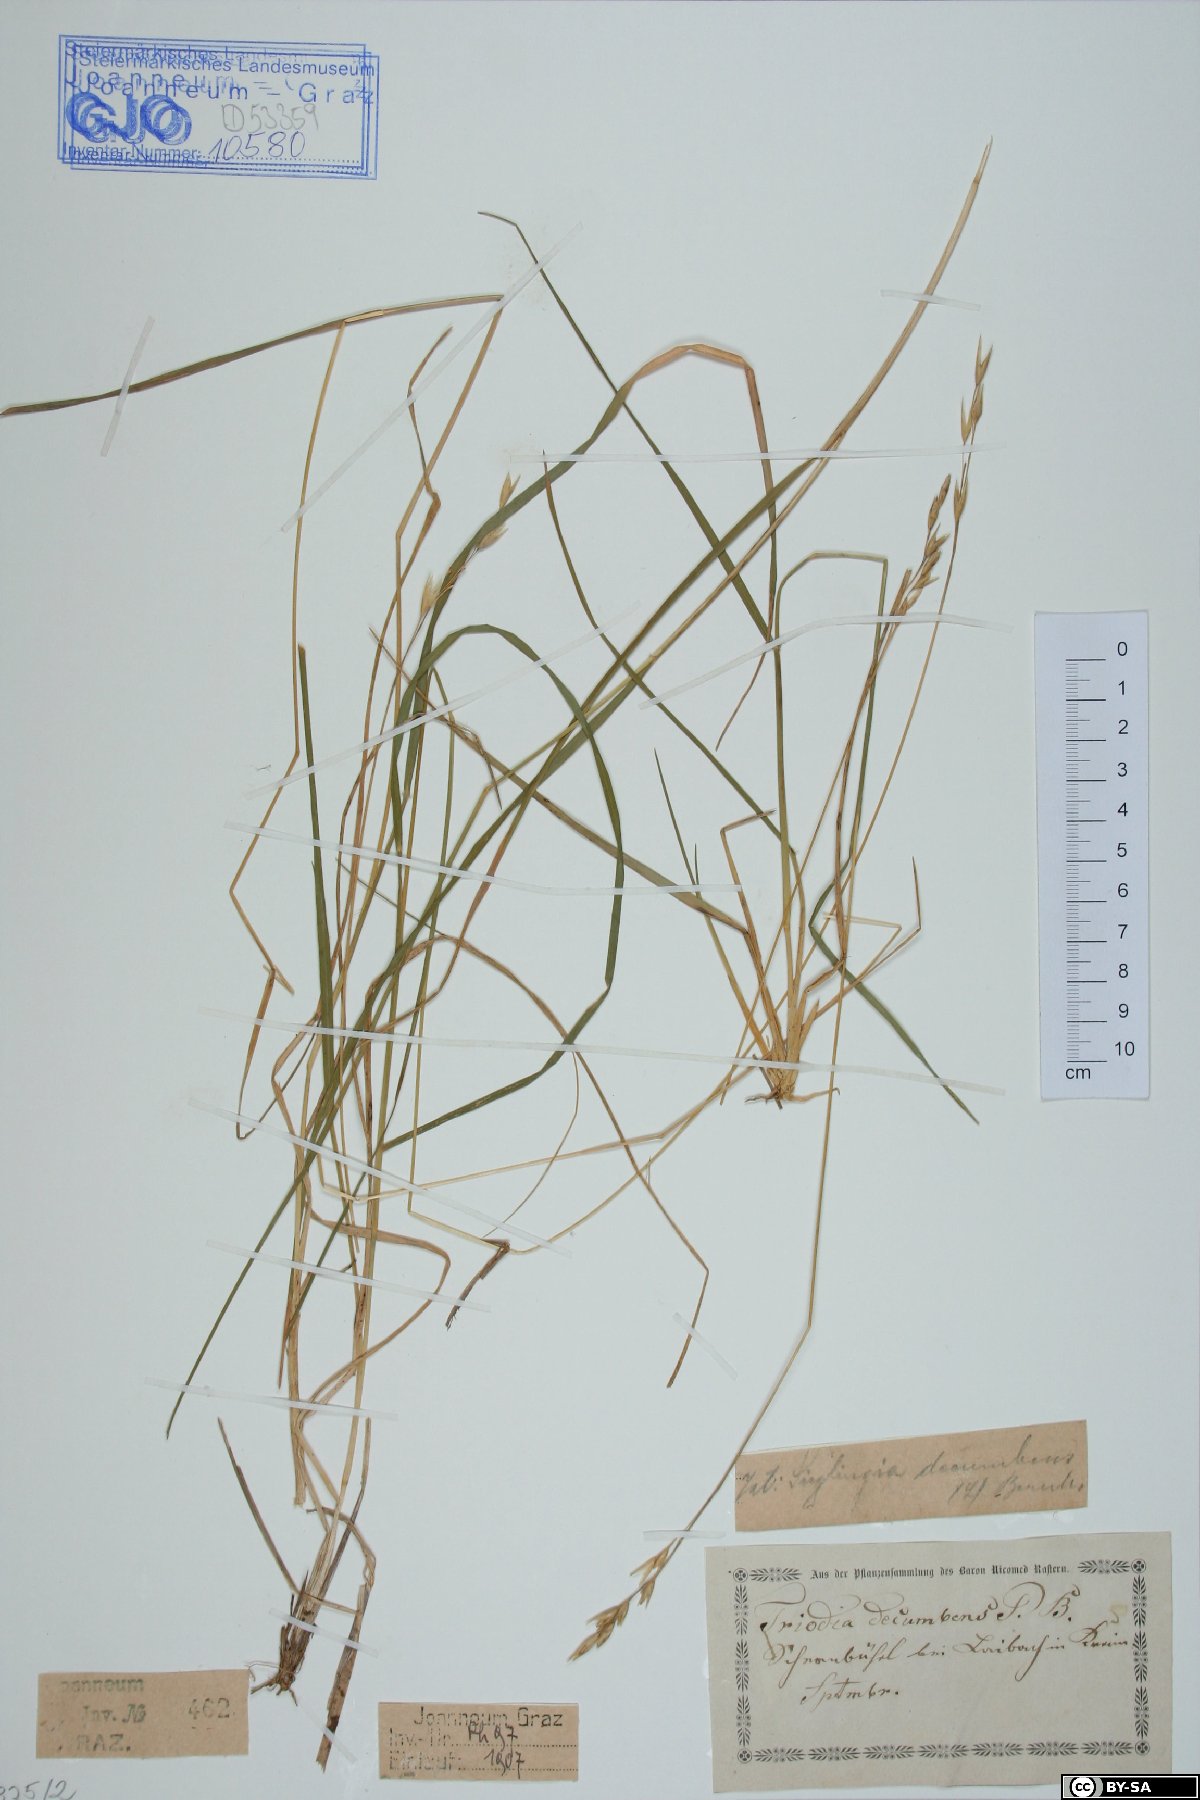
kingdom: Plantae
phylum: Tracheophyta
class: Liliopsida
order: Poales
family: Poaceae
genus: Danthonia
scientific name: Danthonia decumbens
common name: Common heathgrass
